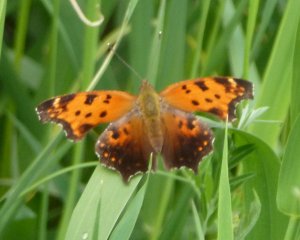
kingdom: Animalia
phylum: Arthropoda
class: Insecta
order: Lepidoptera
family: Nymphalidae
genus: Polygonia
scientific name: Polygonia comma
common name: Eastern Comma
